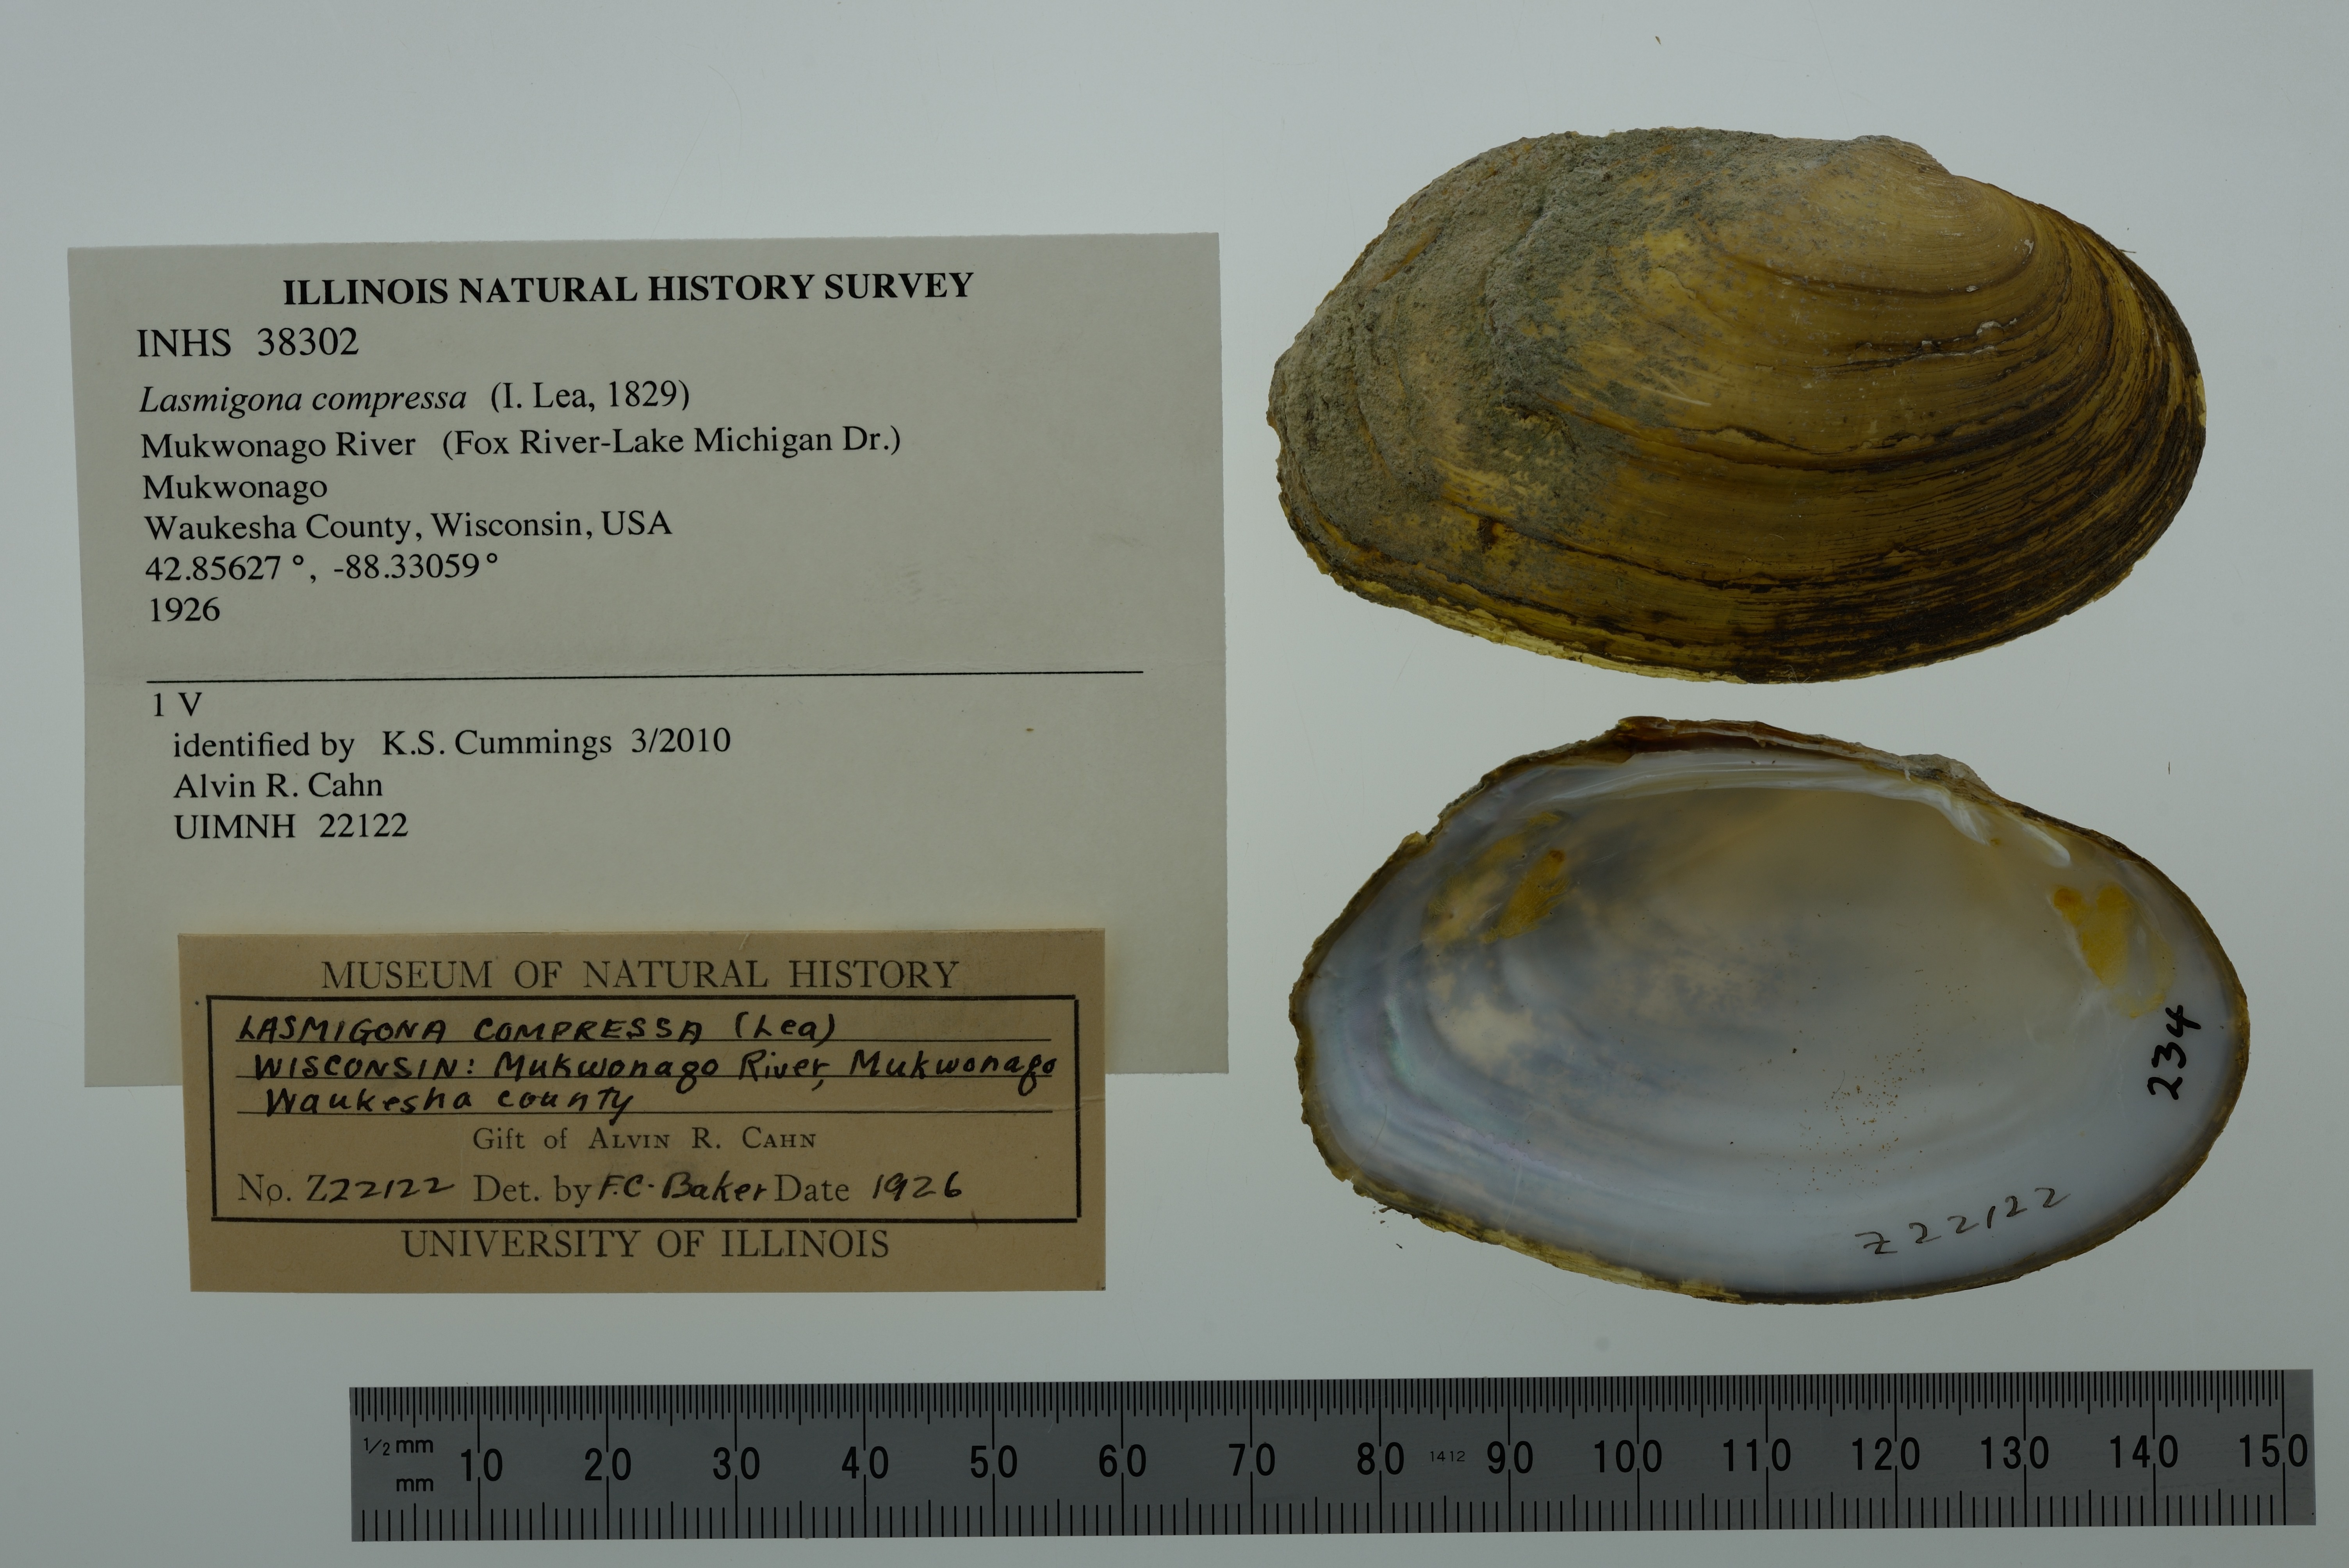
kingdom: Animalia
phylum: Mollusca
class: Bivalvia
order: Unionida
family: Unionidae
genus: Lasmigona
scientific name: Lasmigona compressa
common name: Creek heelsplitter
